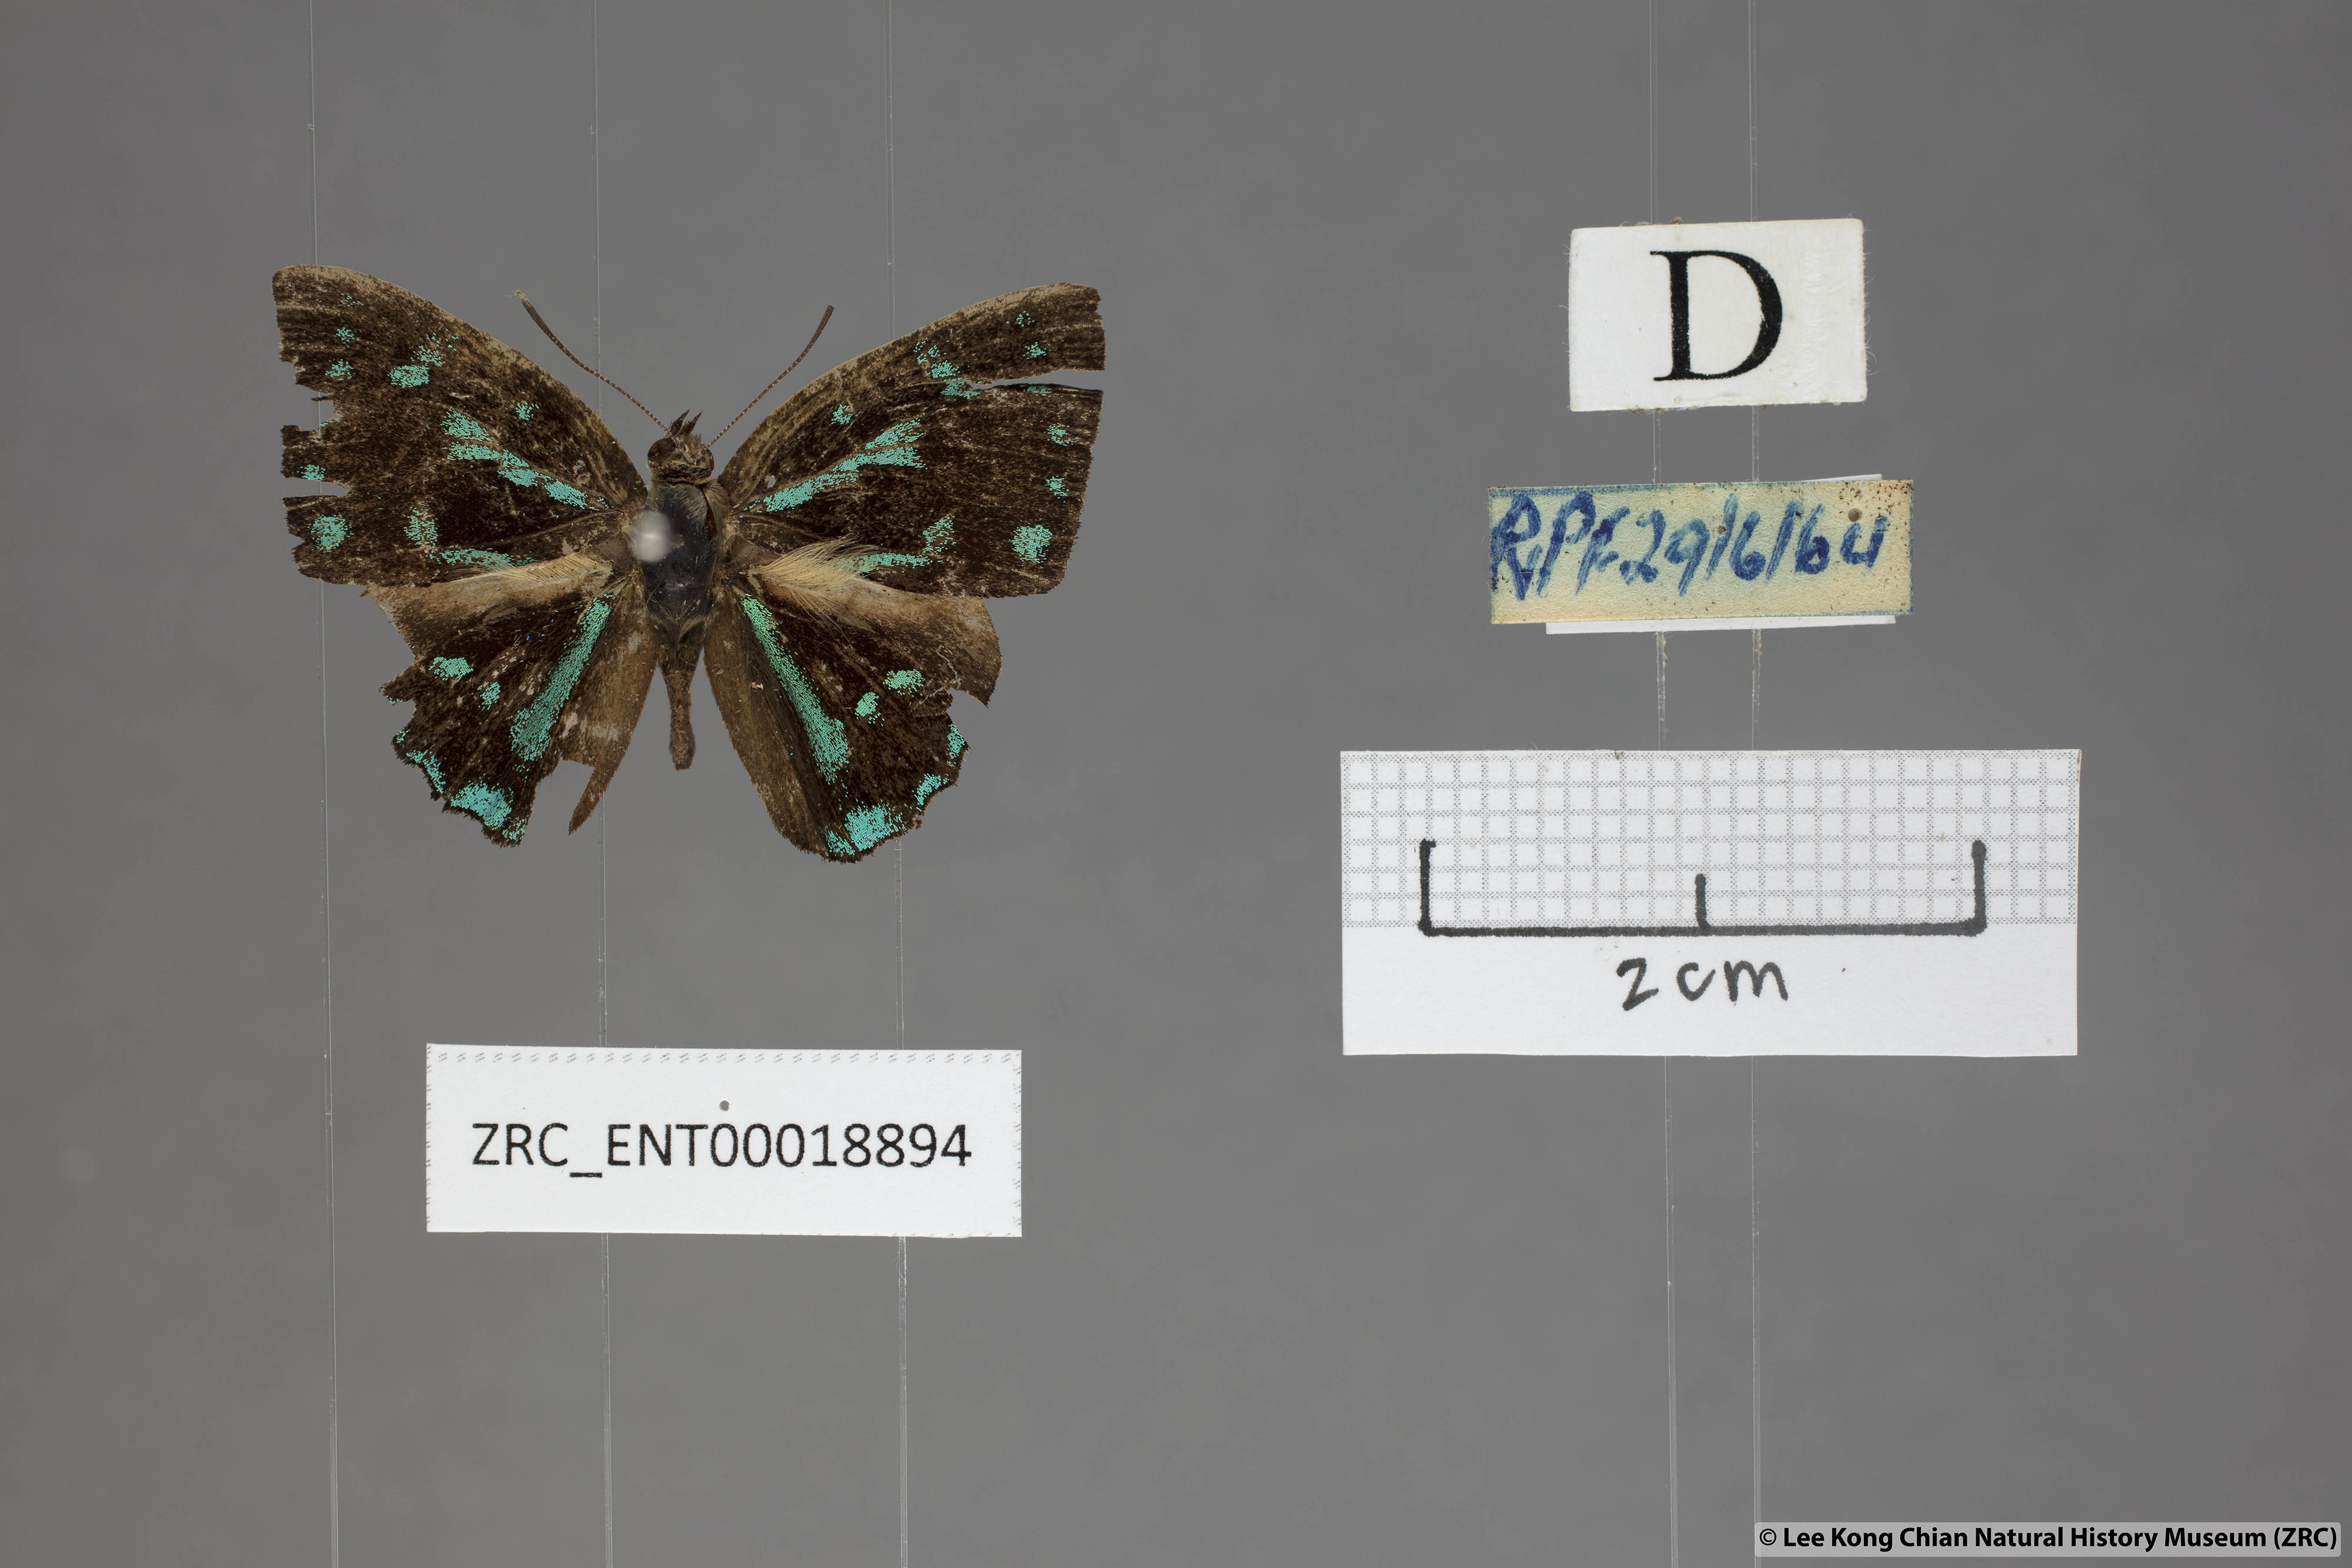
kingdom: Animalia
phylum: Arthropoda
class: Insecta
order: Lepidoptera
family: Lycaenidae
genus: Simiskina
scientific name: Simiskina
